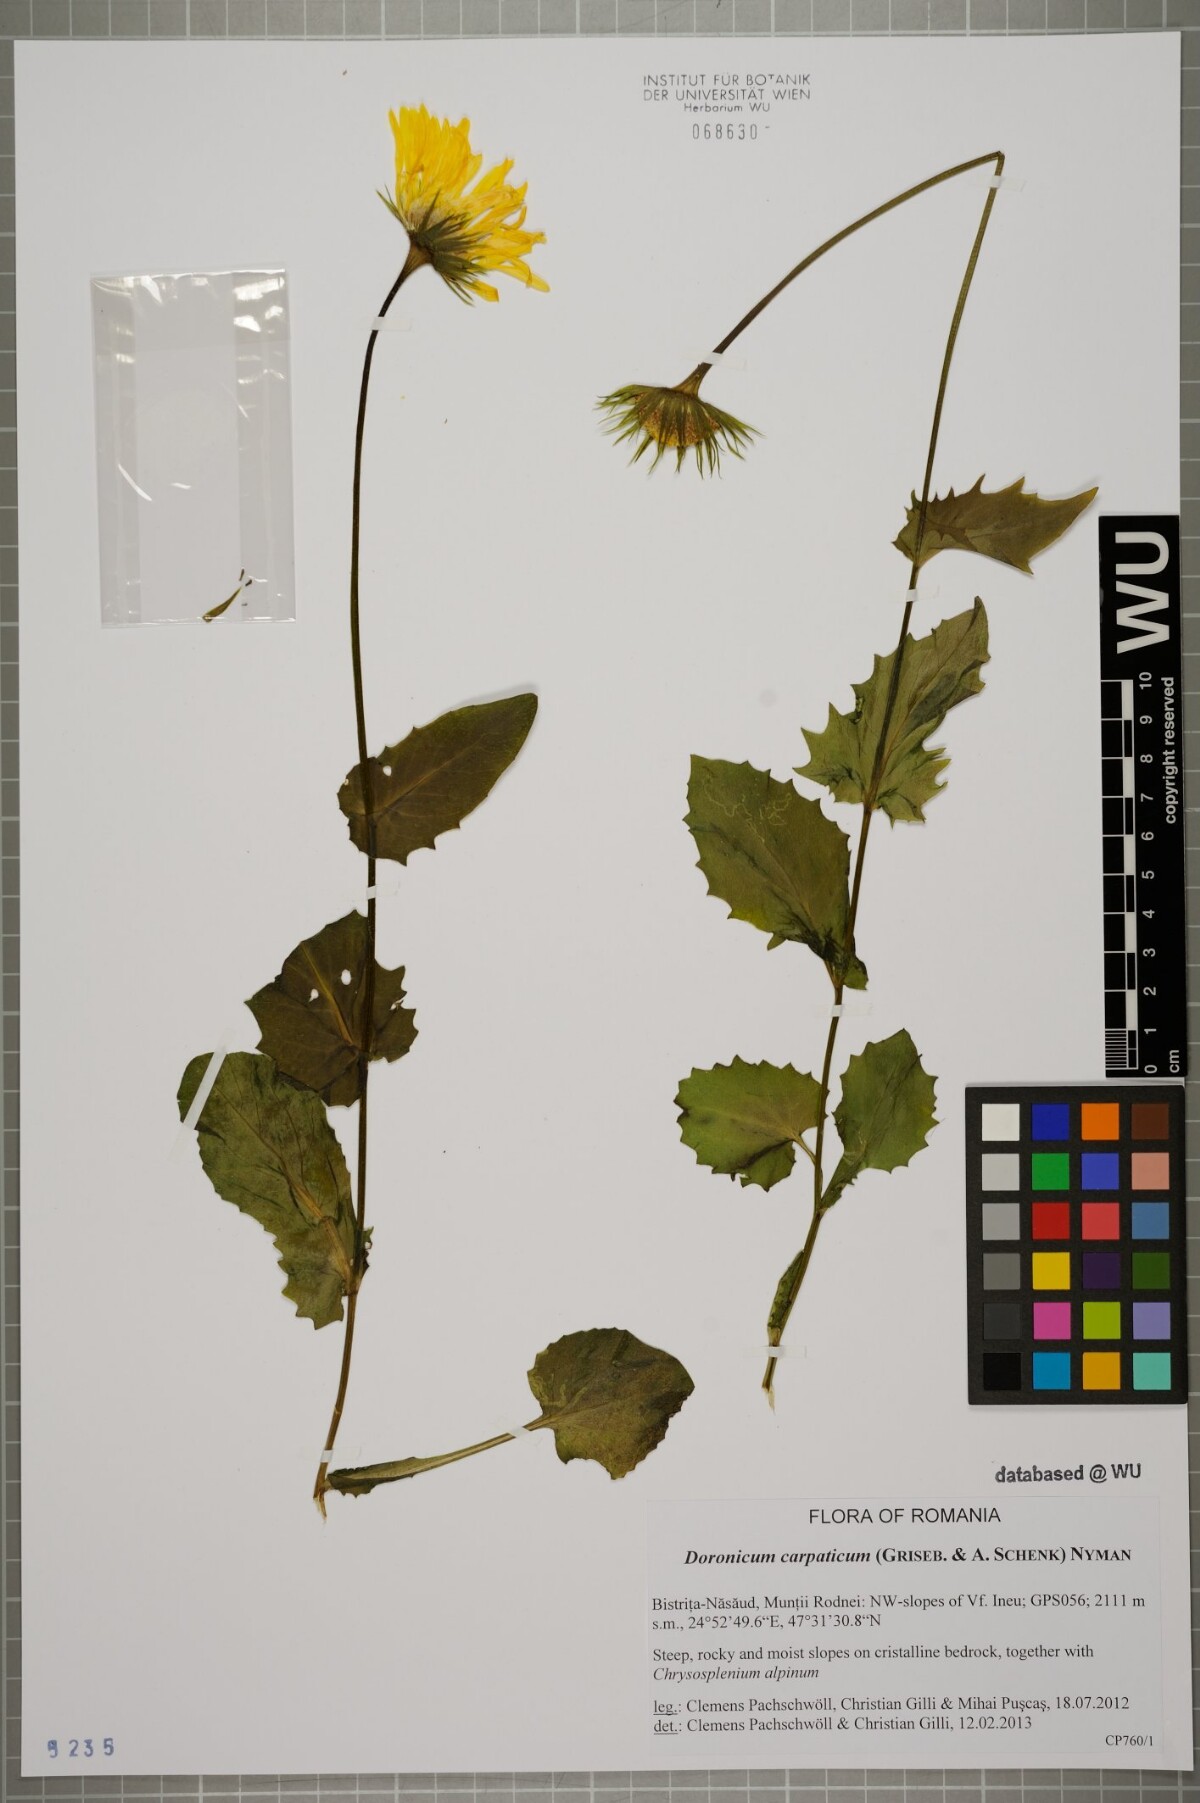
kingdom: Plantae
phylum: Tracheophyta
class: Magnoliopsida
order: Asterales
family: Asteraceae
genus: Doronicum
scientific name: Doronicum carpaticum
